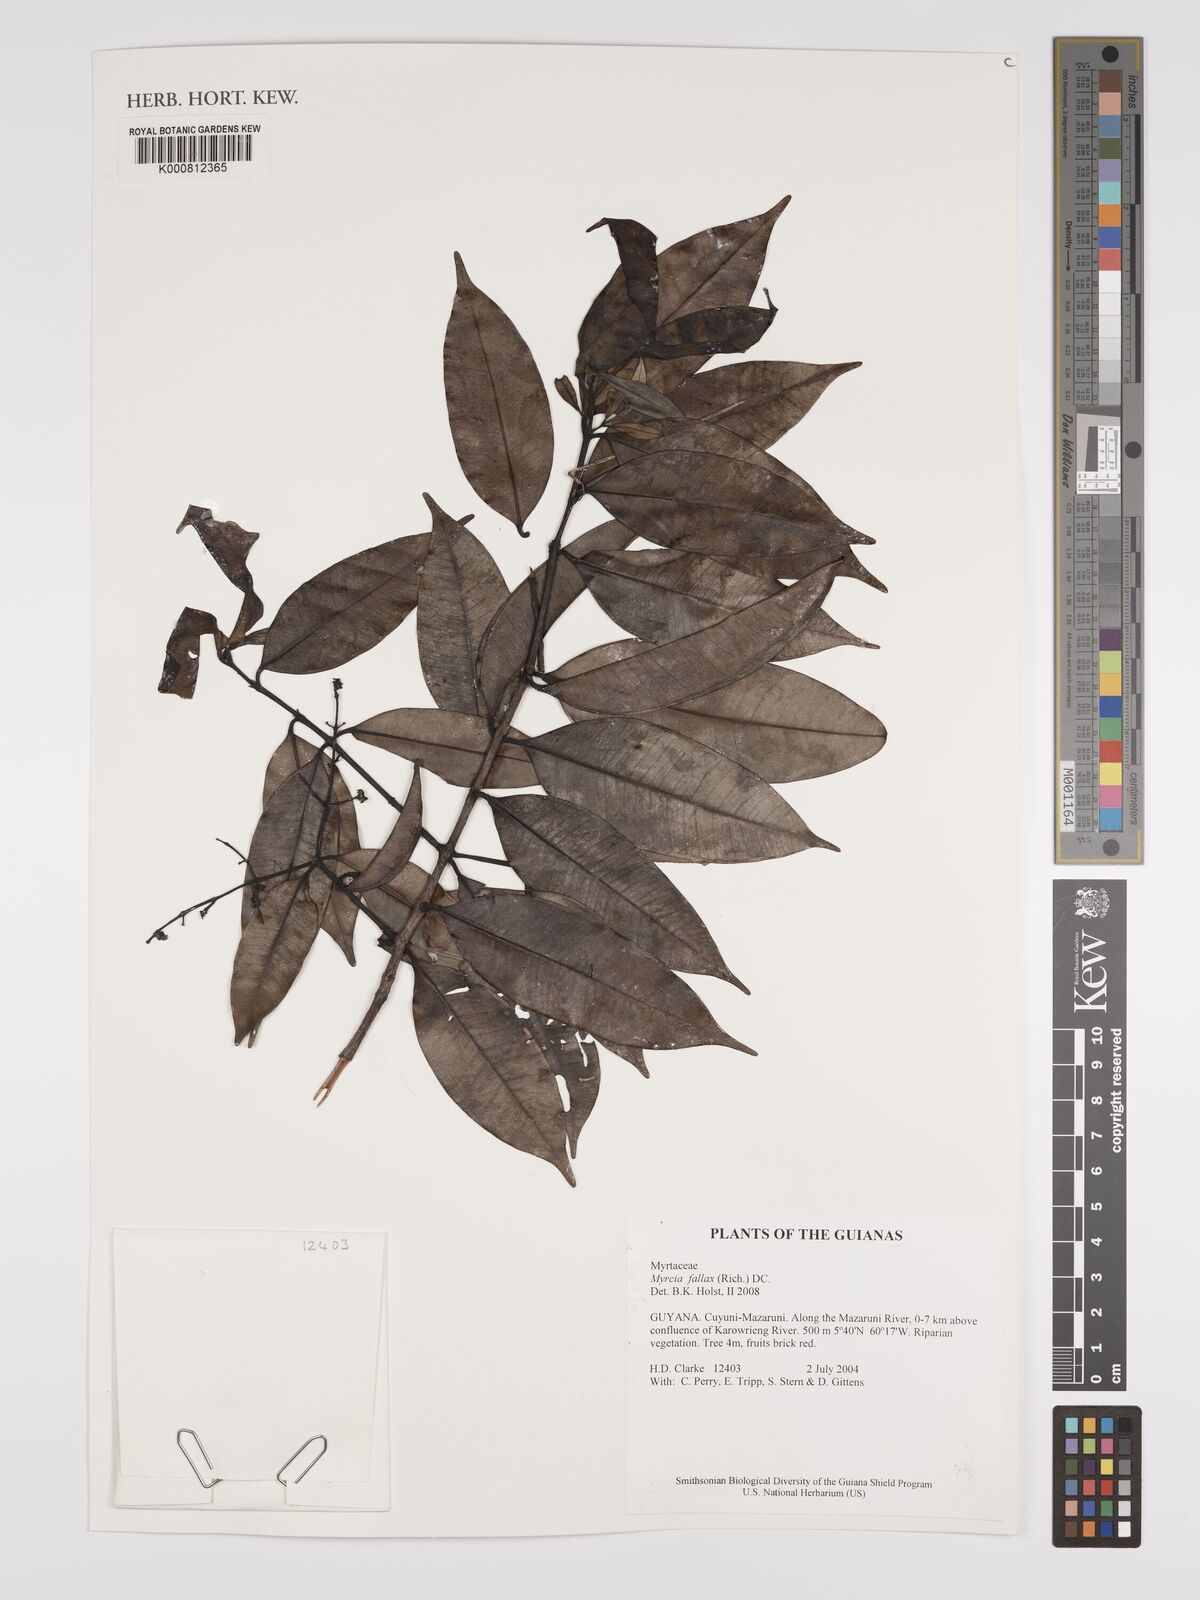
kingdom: Plantae
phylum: Tracheophyta
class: Magnoliopsida
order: Myrtales
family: Myrtaceae
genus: Myrcia
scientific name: Myrcia splendens
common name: Surinam cherry
